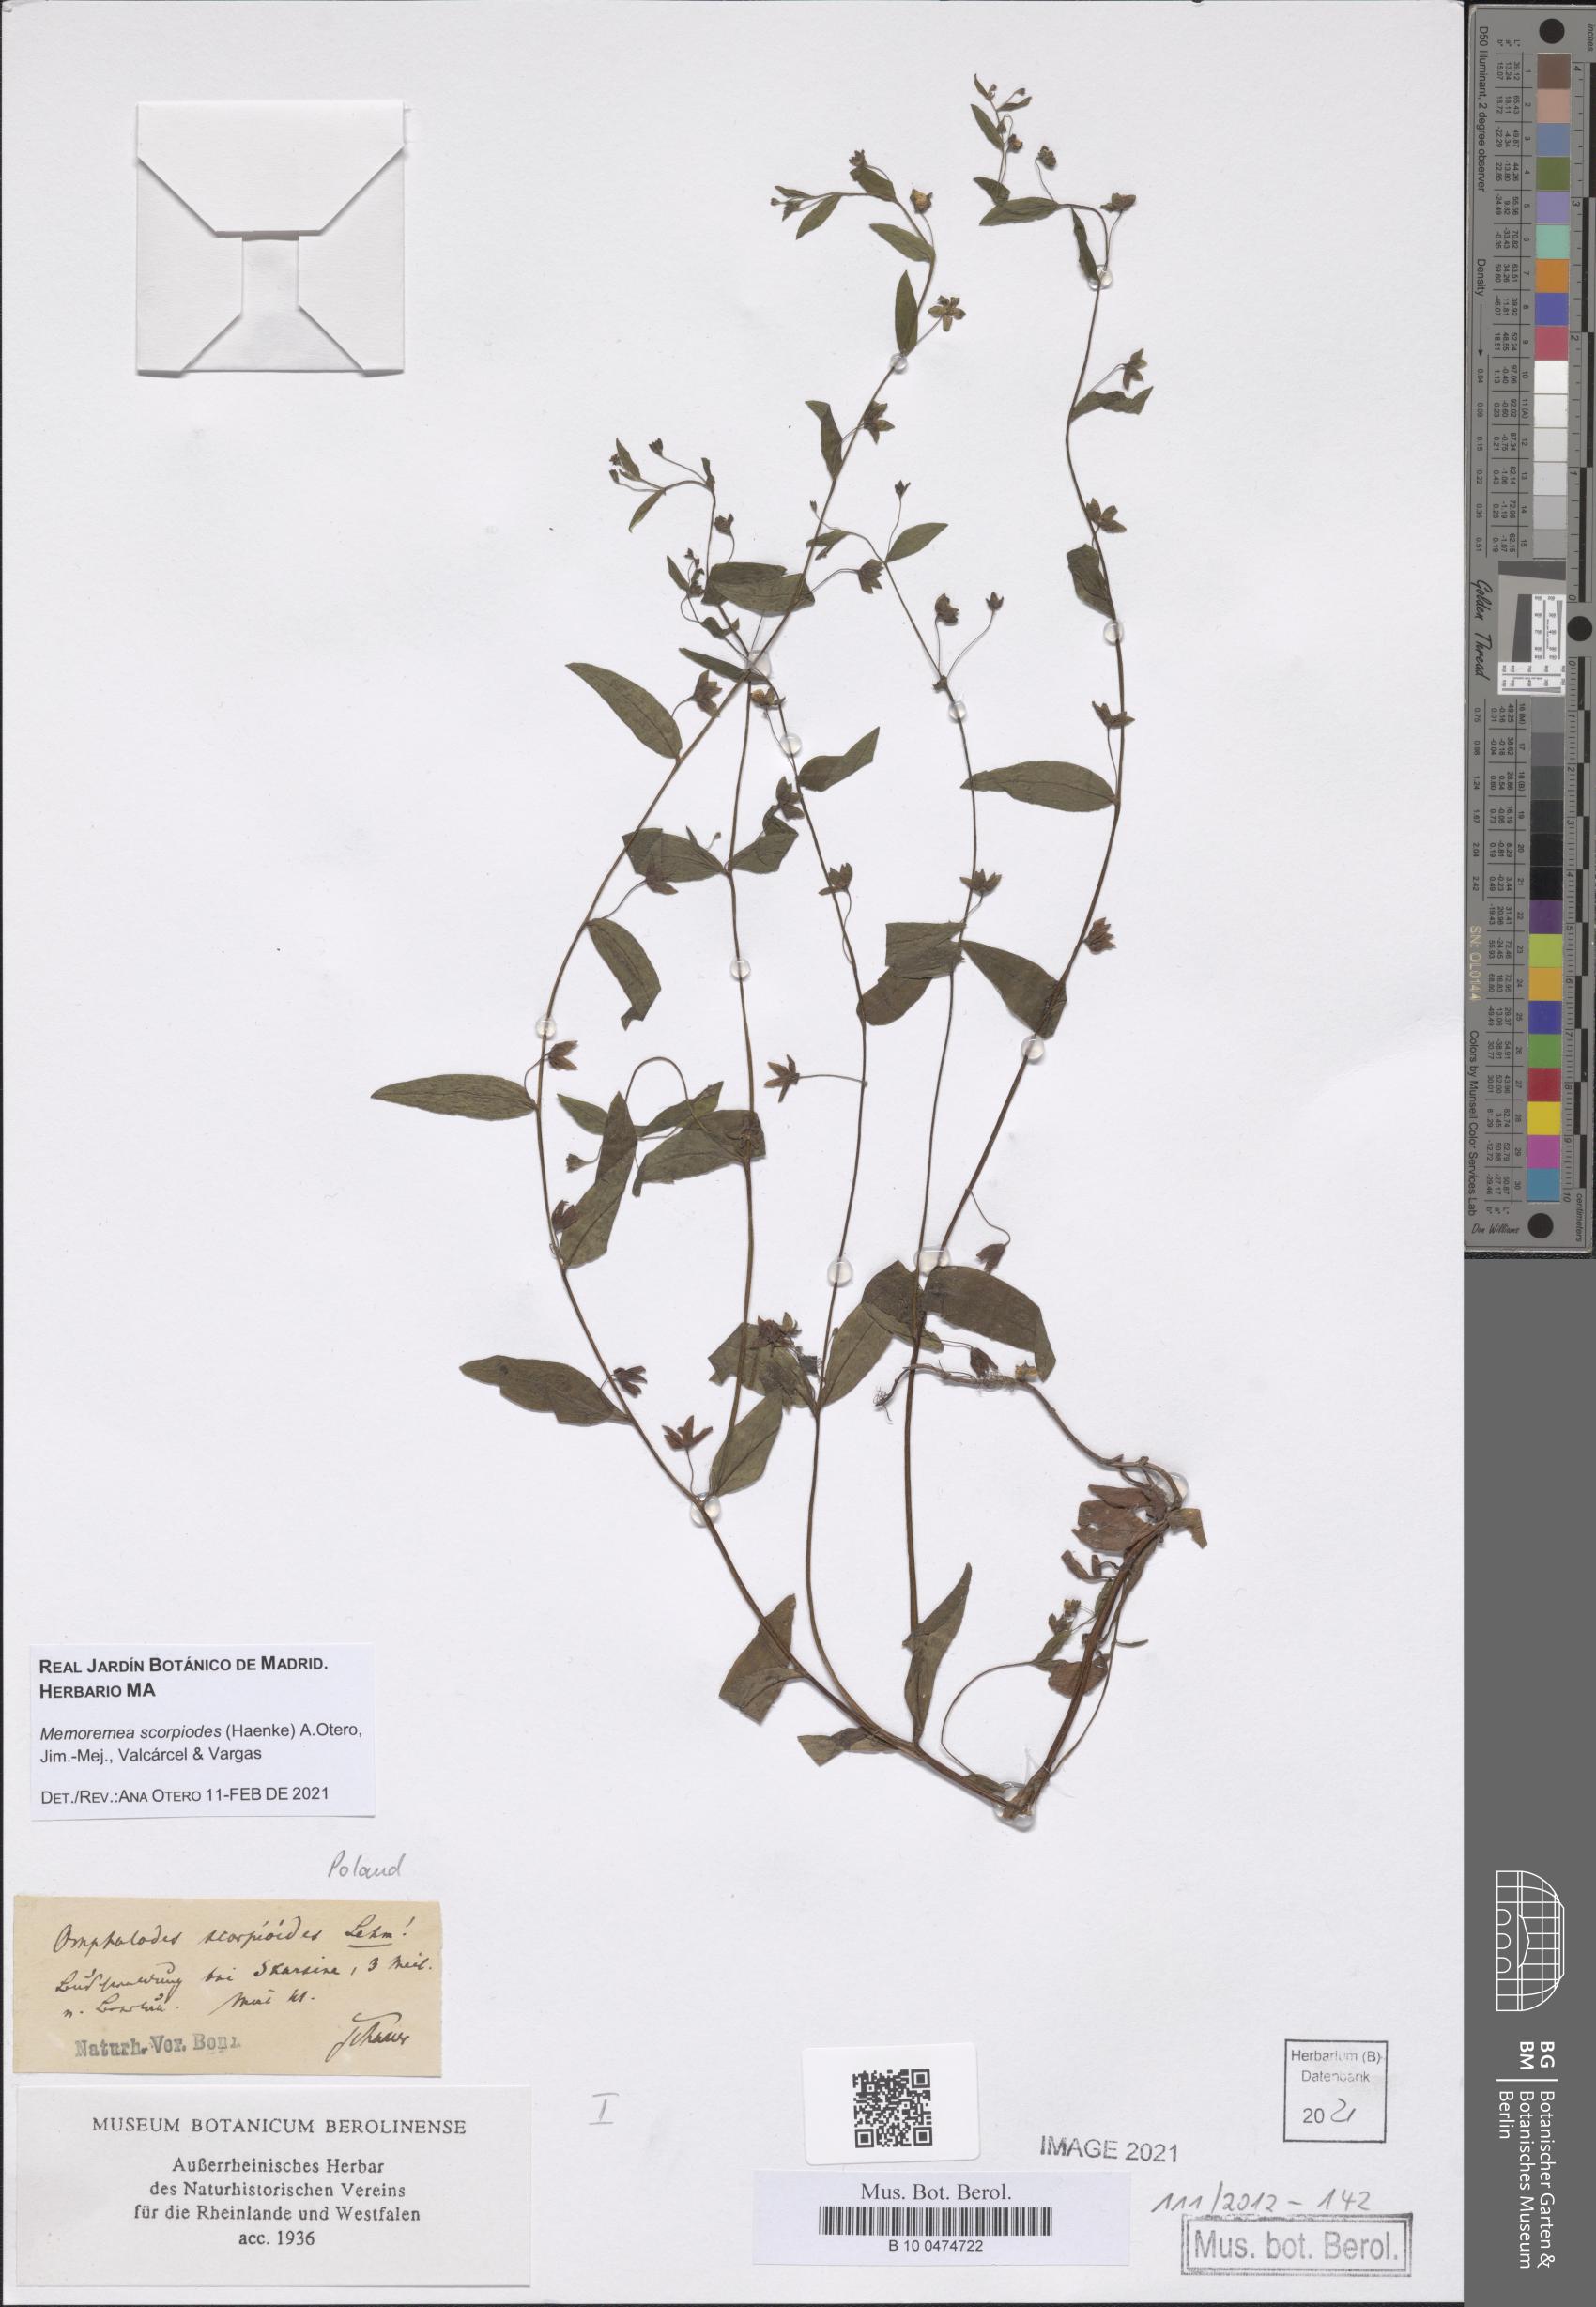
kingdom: Plantae
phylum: Tracheophyta
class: Magnoliopsida
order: Boraginales
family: Boraginaceae
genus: Memoremea
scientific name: Memoremea scorpioides
